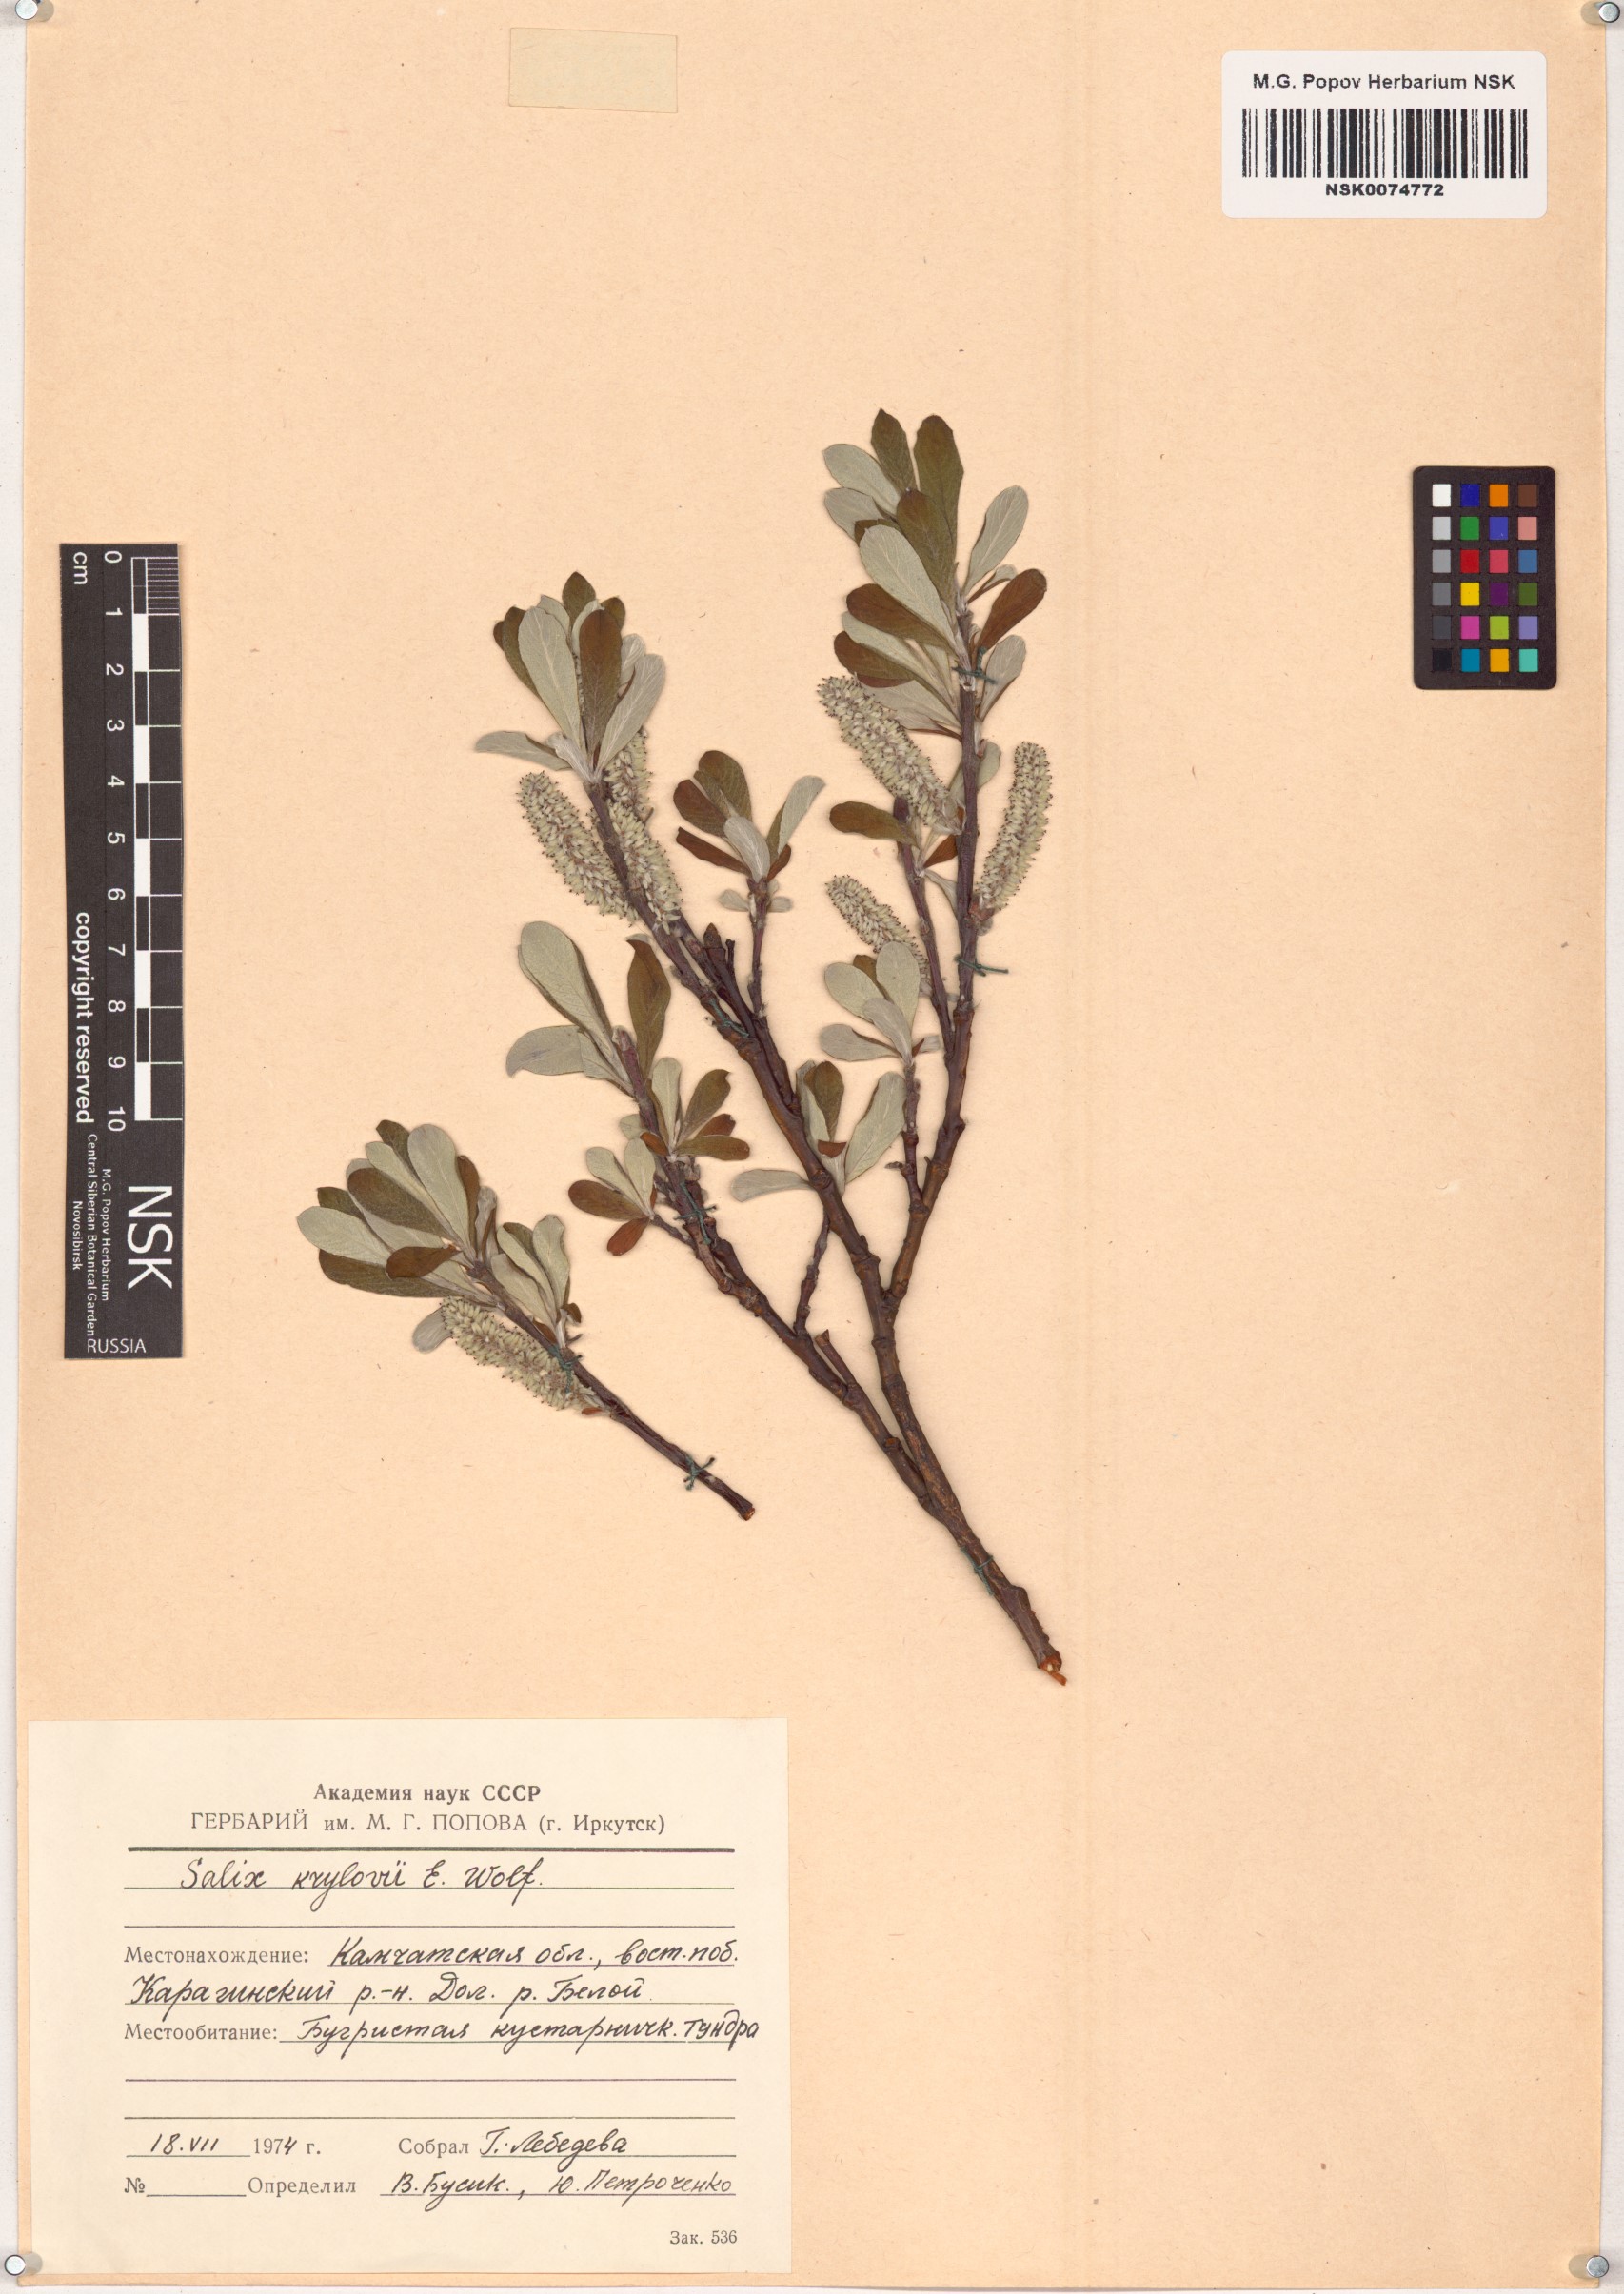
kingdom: Plantae
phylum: Tracheophyta
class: Magnoliopsida
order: Malpighiales
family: Salicaceae
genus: Salix
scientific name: Salix krylovii
